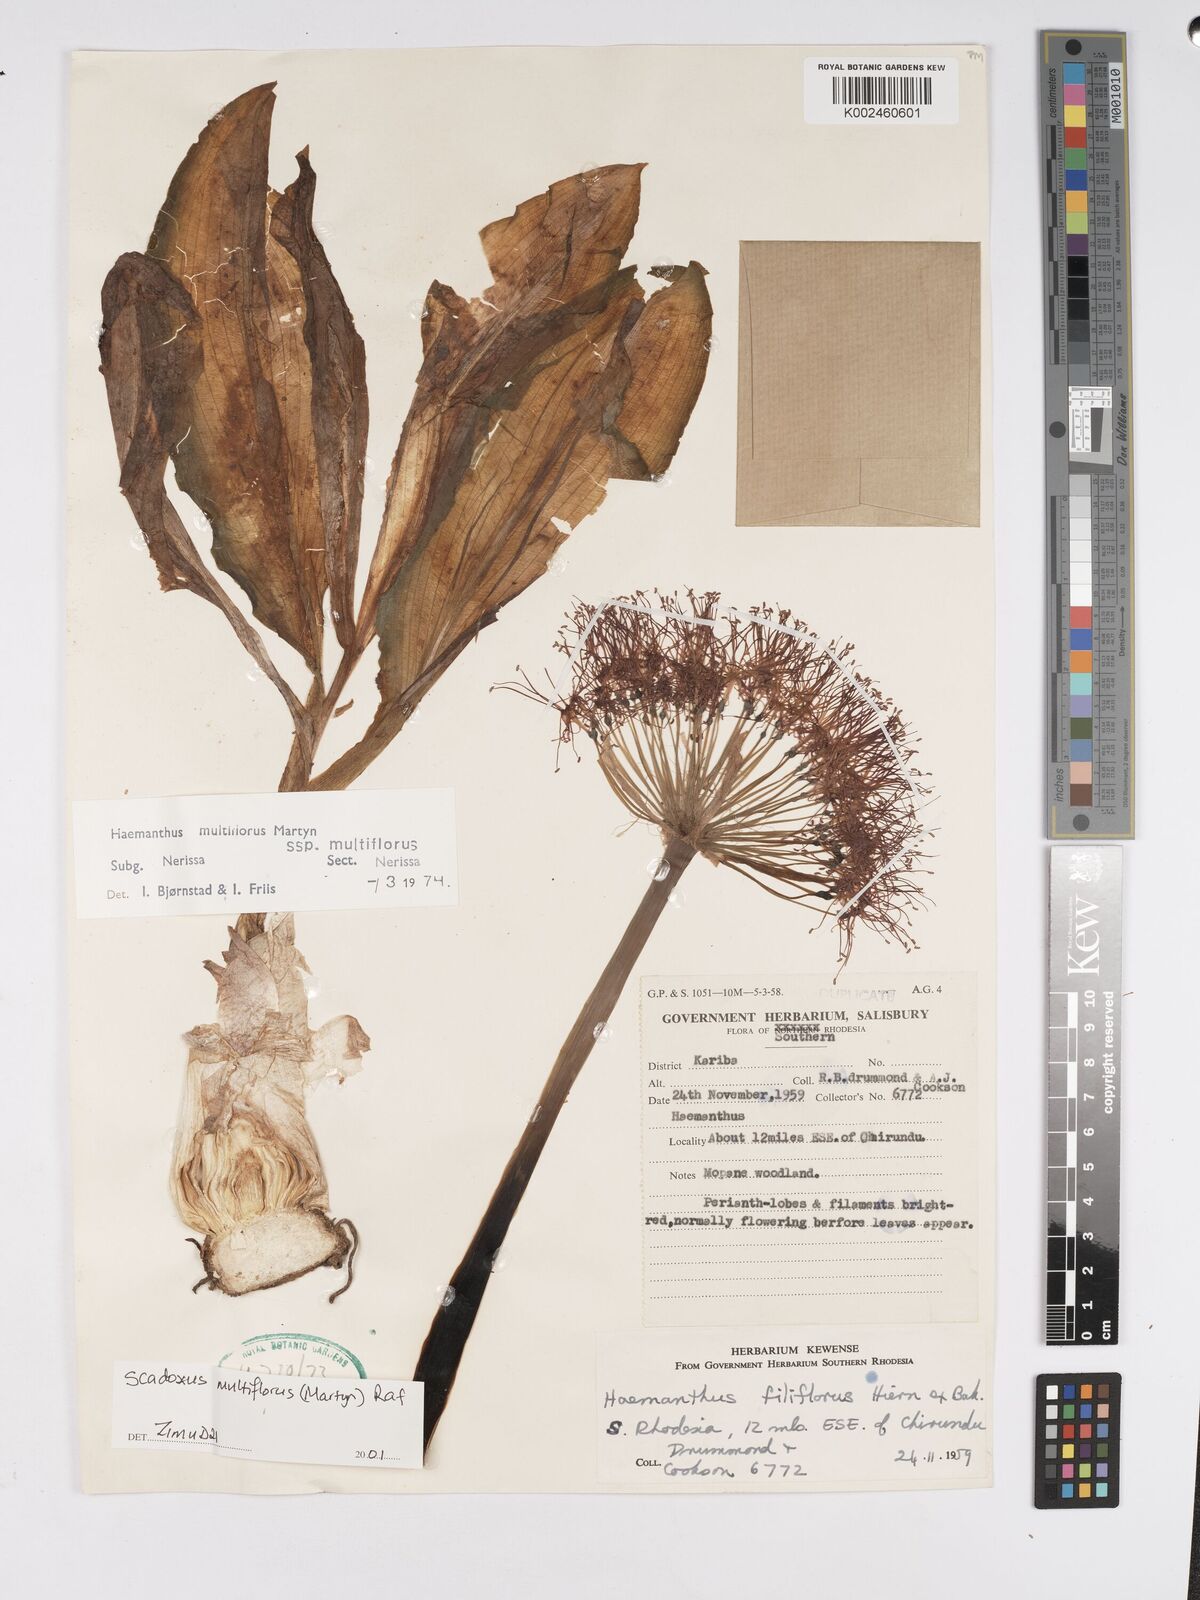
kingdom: Plantae
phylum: Tracheophyta
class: Liliopsida
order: Asparagales
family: Amaryllidaceae
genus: Scadoxus
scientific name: Scadoxus multiflorus
